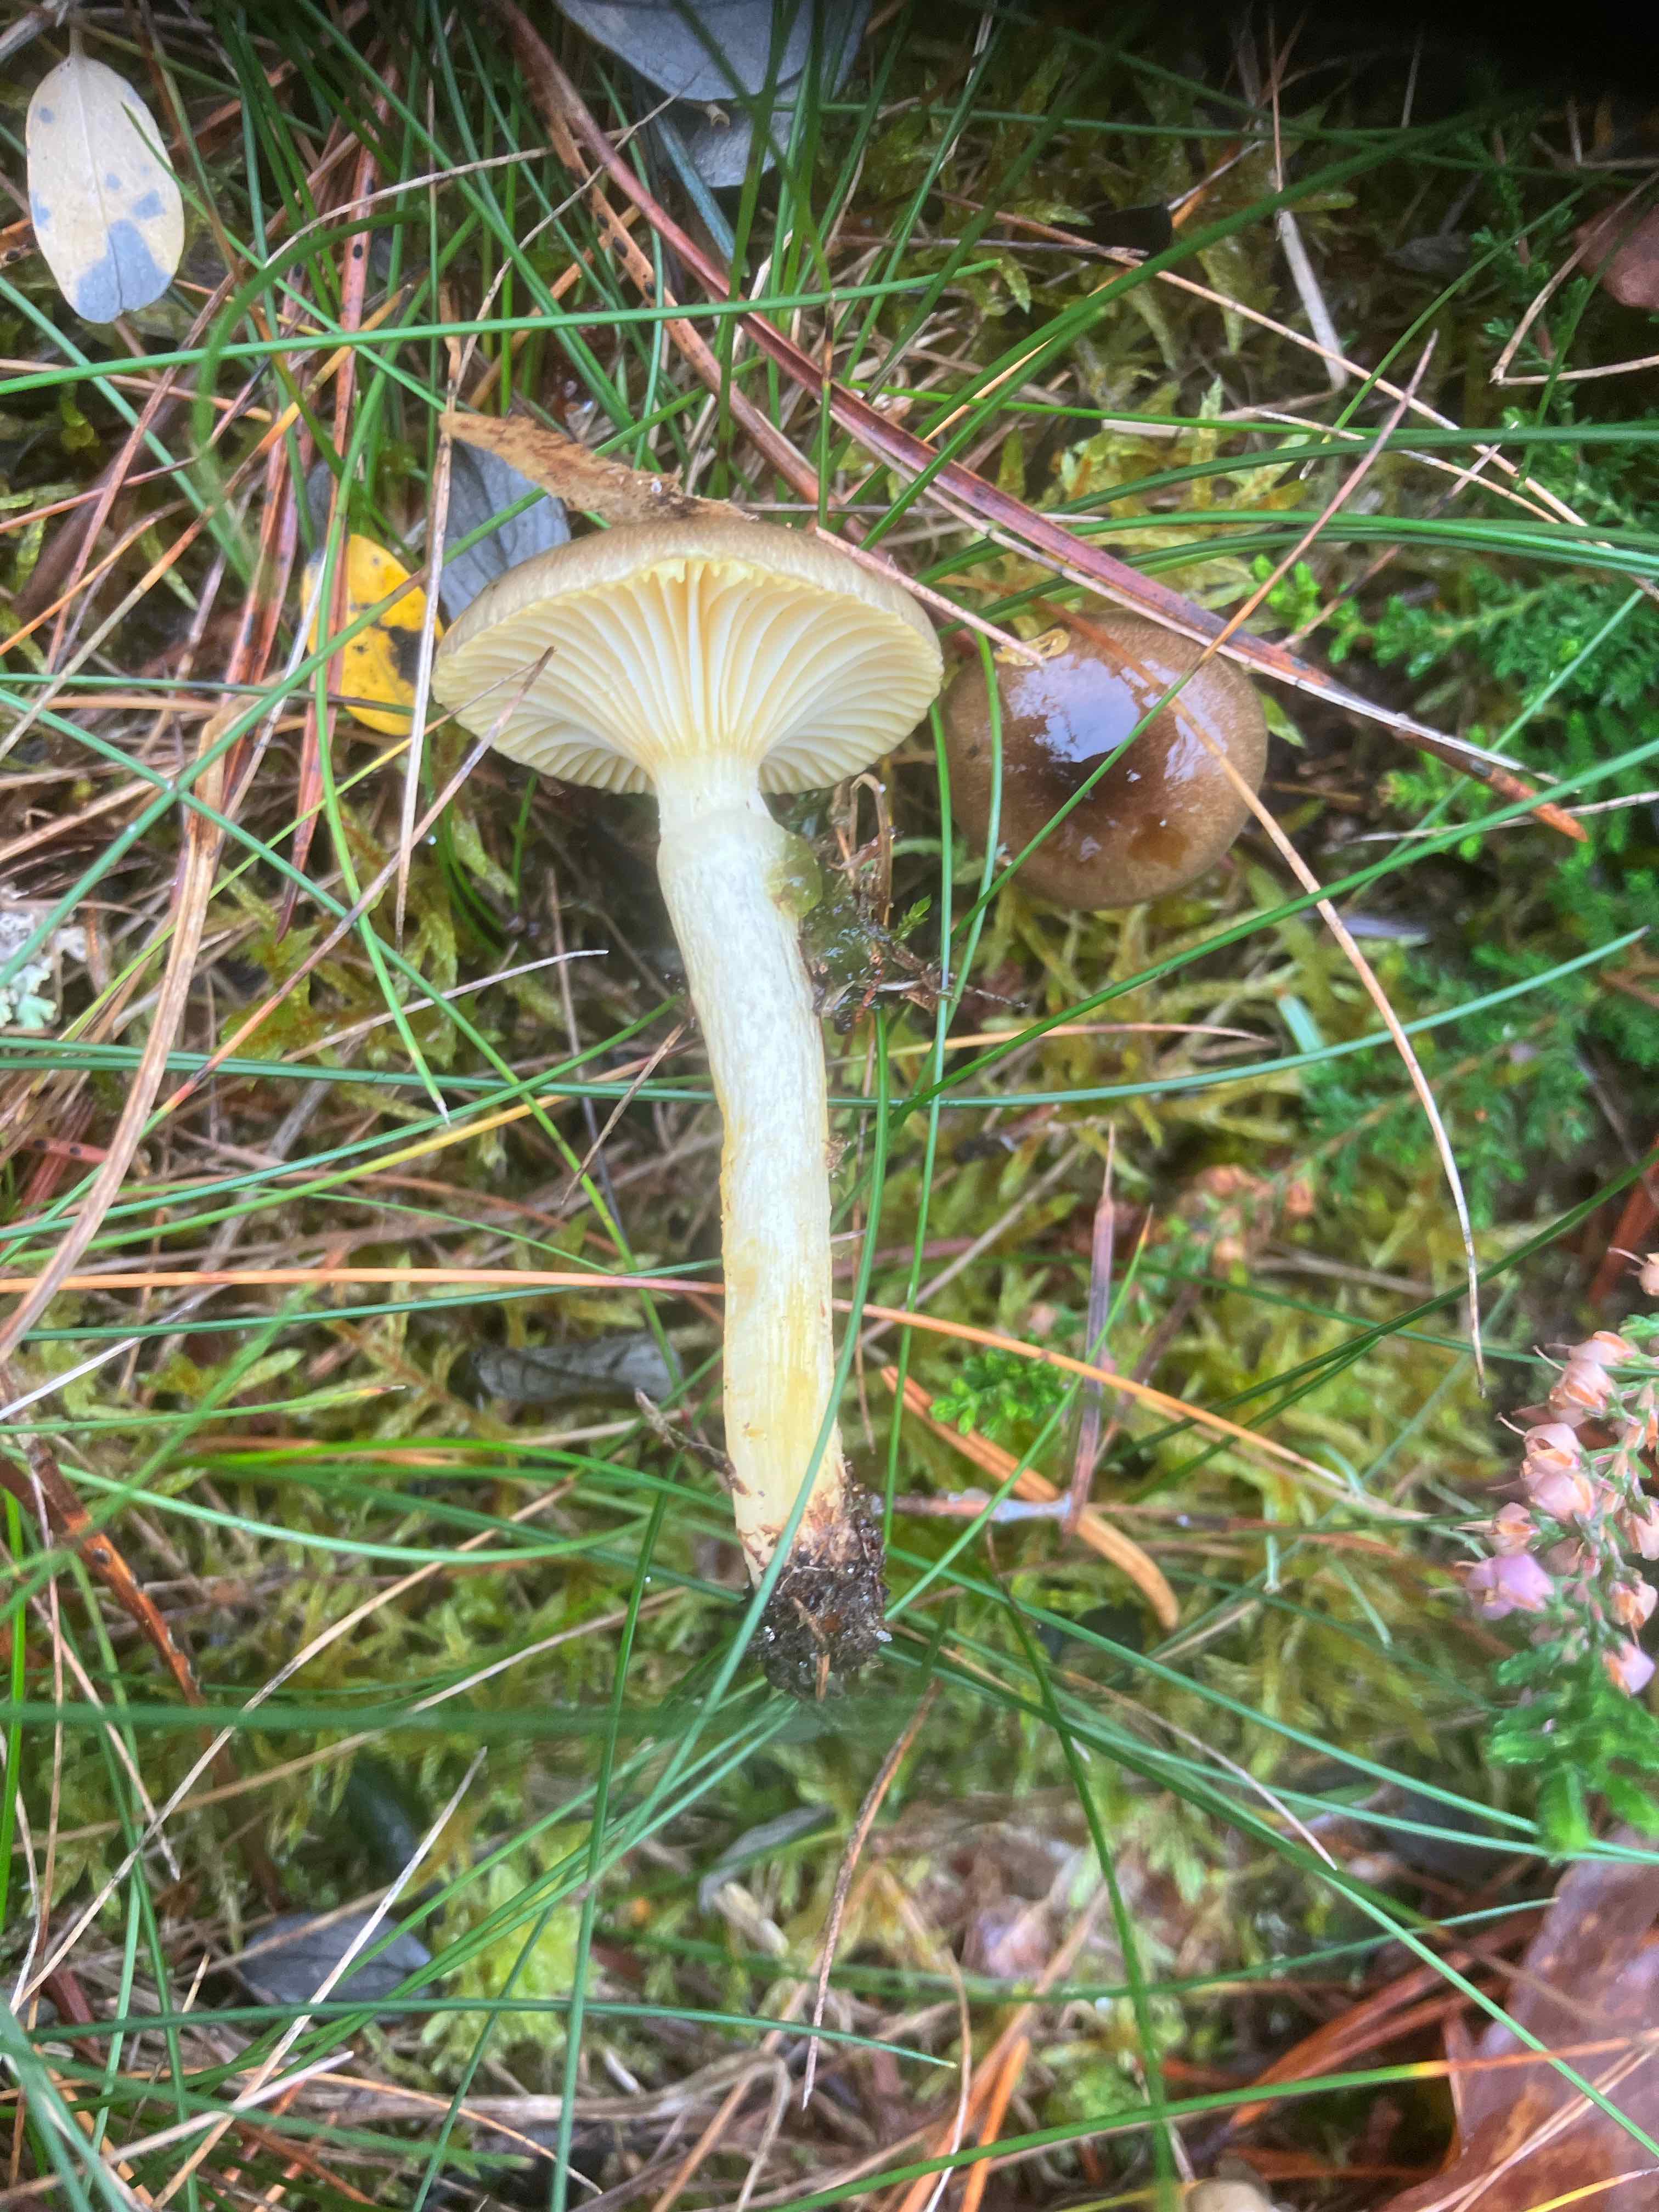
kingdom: Fungi
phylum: Basidiomycota
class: Agaricomycetes
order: Agaricales
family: Hygrophoraceae
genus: Hygrophorus
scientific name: Hygrophorus hypothejus
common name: frost-sneglehat
